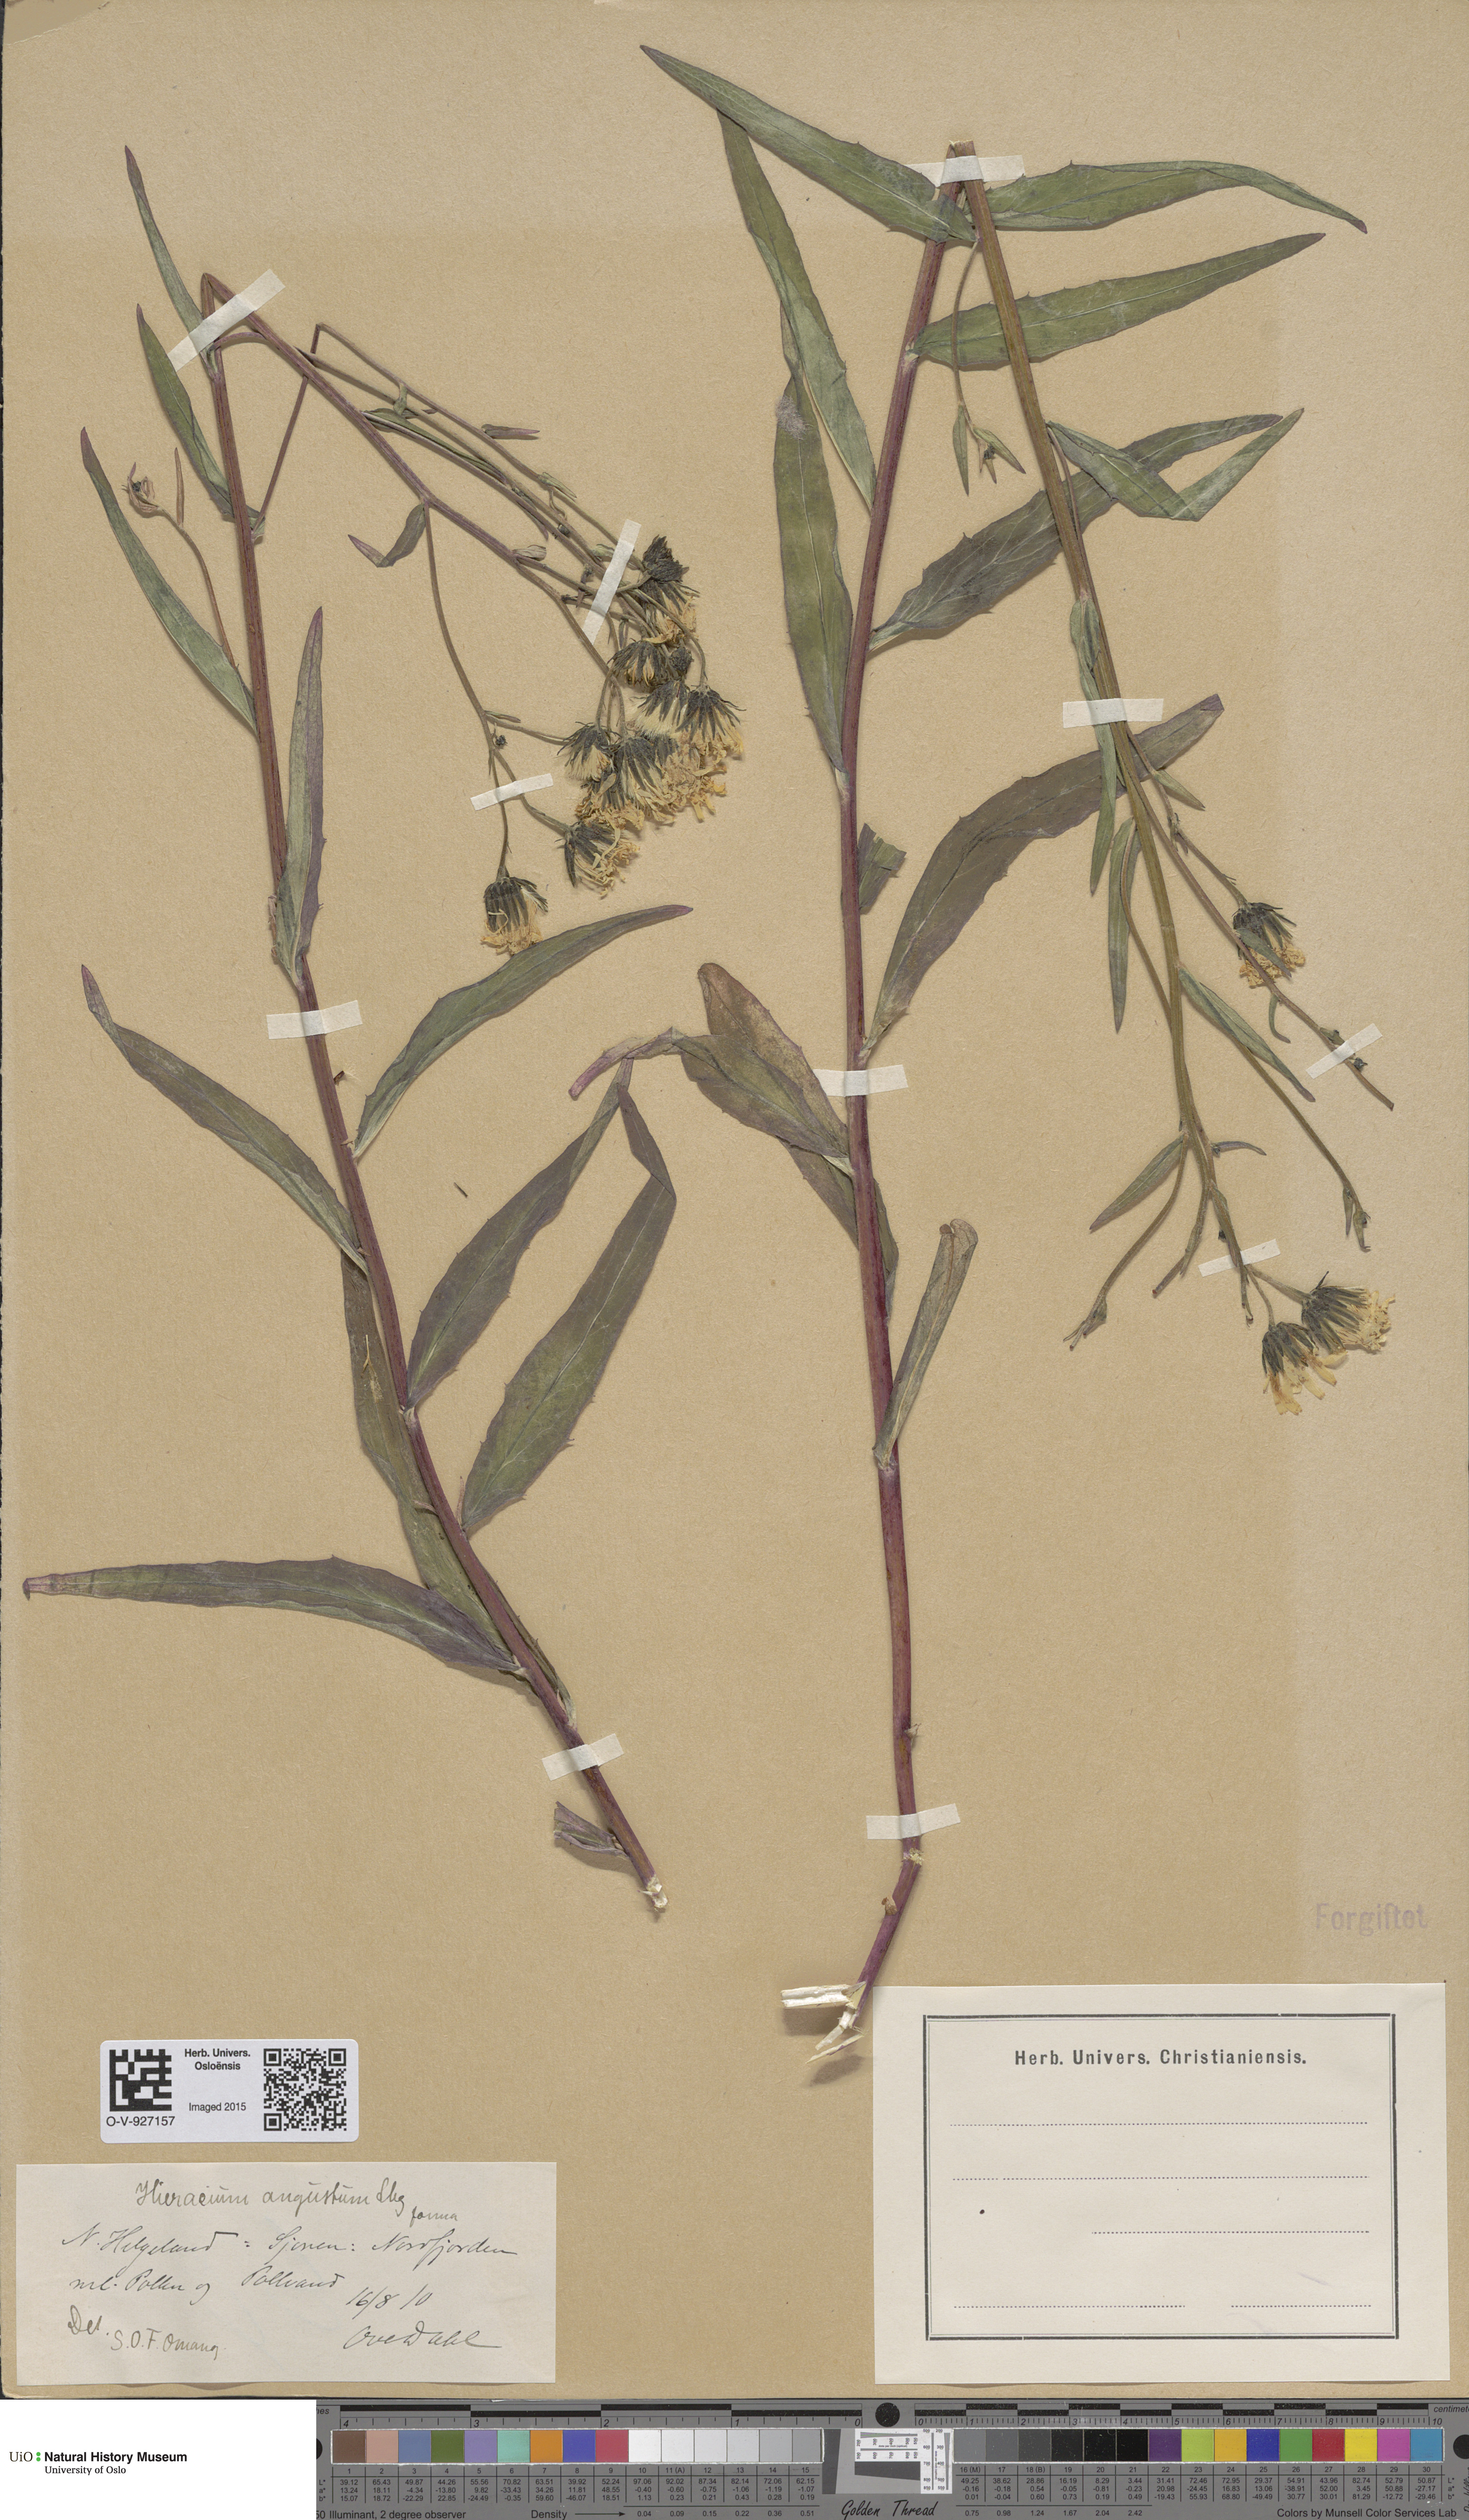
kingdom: Plantae
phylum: Tracheophyta
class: Magnoliopsida
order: Asterales
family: Asteraceae
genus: Hieracium
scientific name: Hieracium angustum
